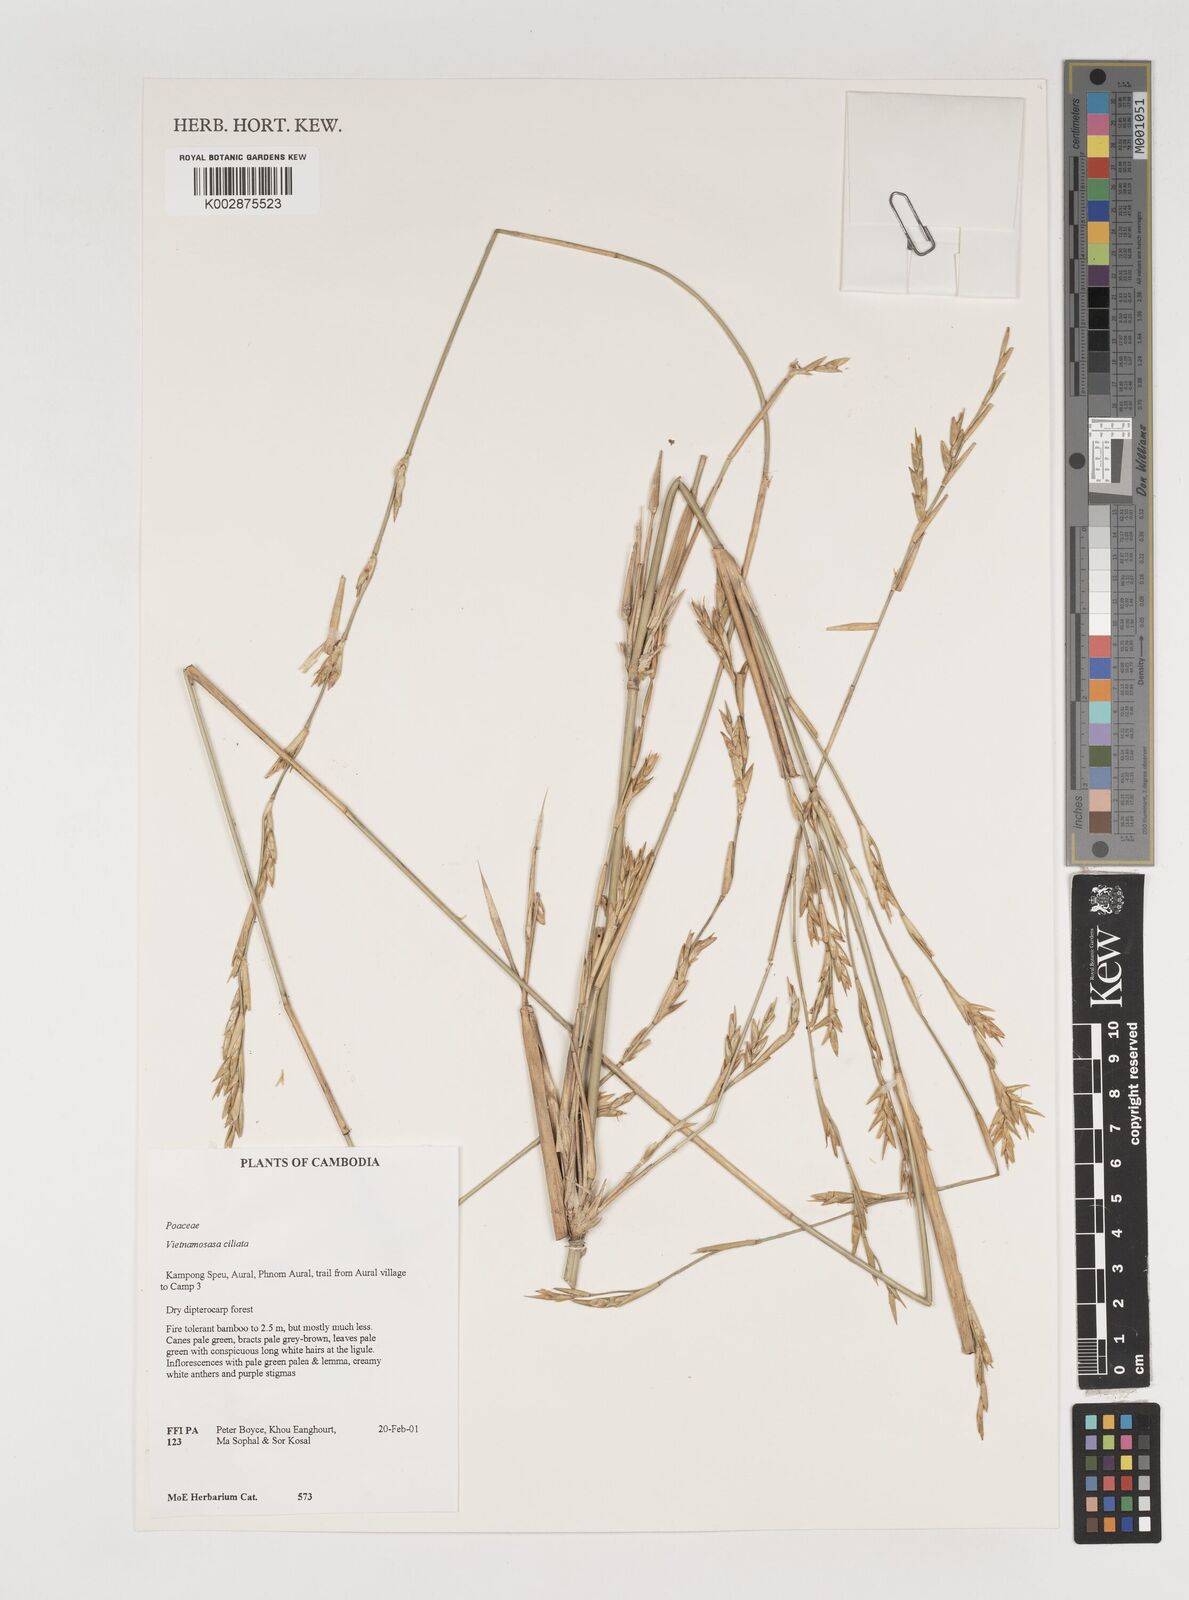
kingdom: Plantae
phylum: Tracheophyta
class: Liliopsida
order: Poales
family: Poaceae
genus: Vietnamosasa
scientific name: Vietnamosasa
